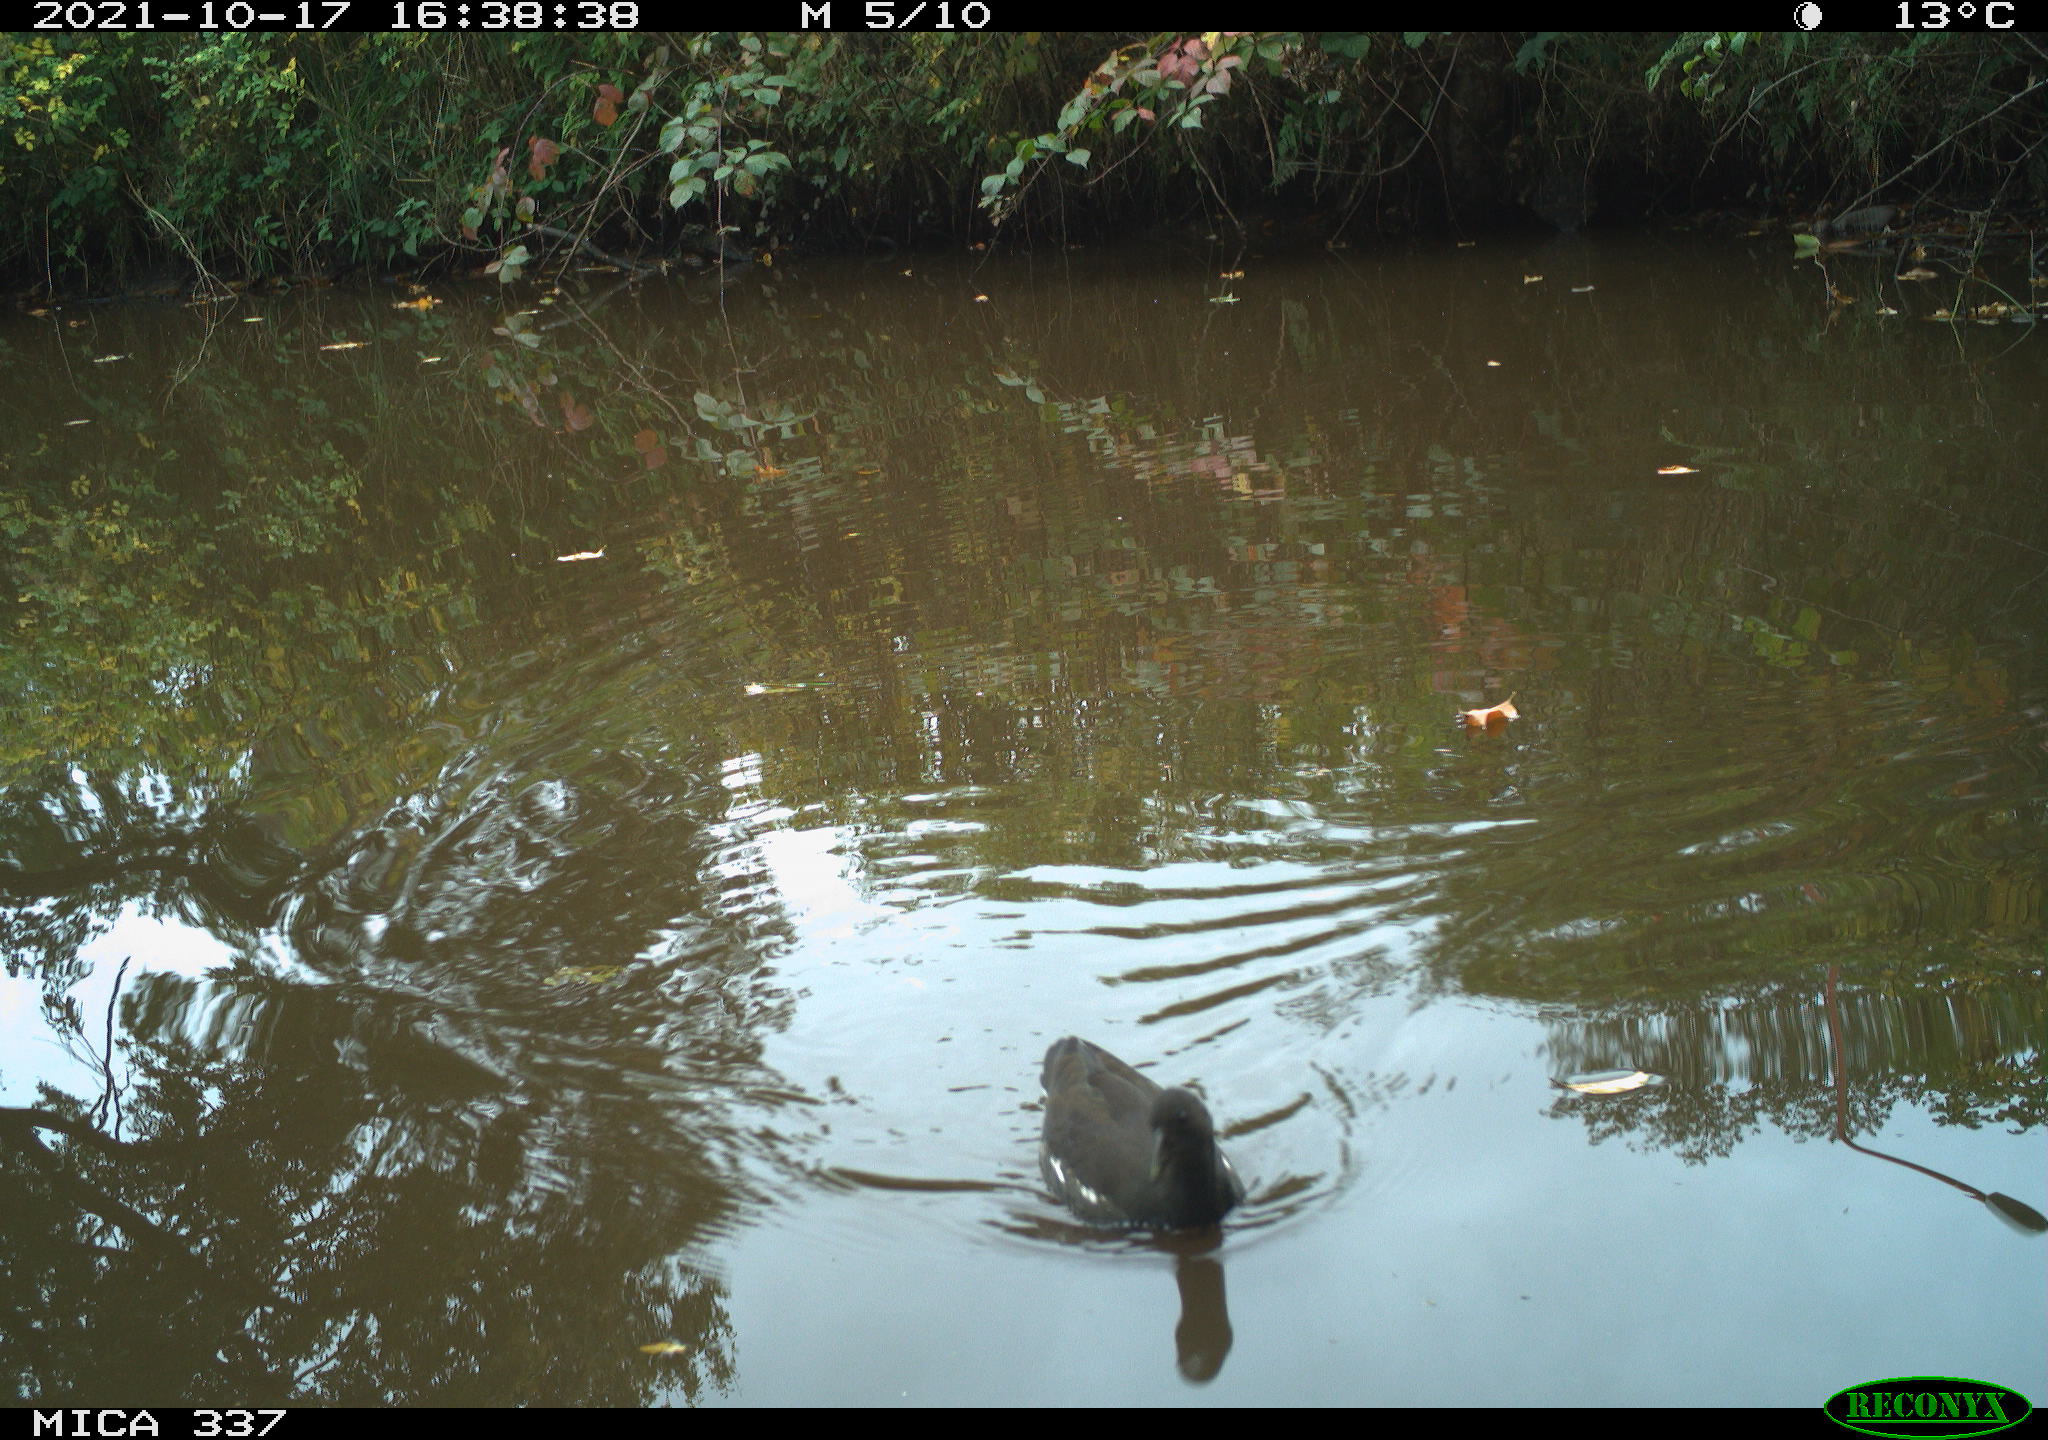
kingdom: Animalia
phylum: Chordata
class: Aves
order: Gruiformes
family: Rallidae
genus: Gallinula
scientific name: Gallinula chloropus
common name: Common moorhen
